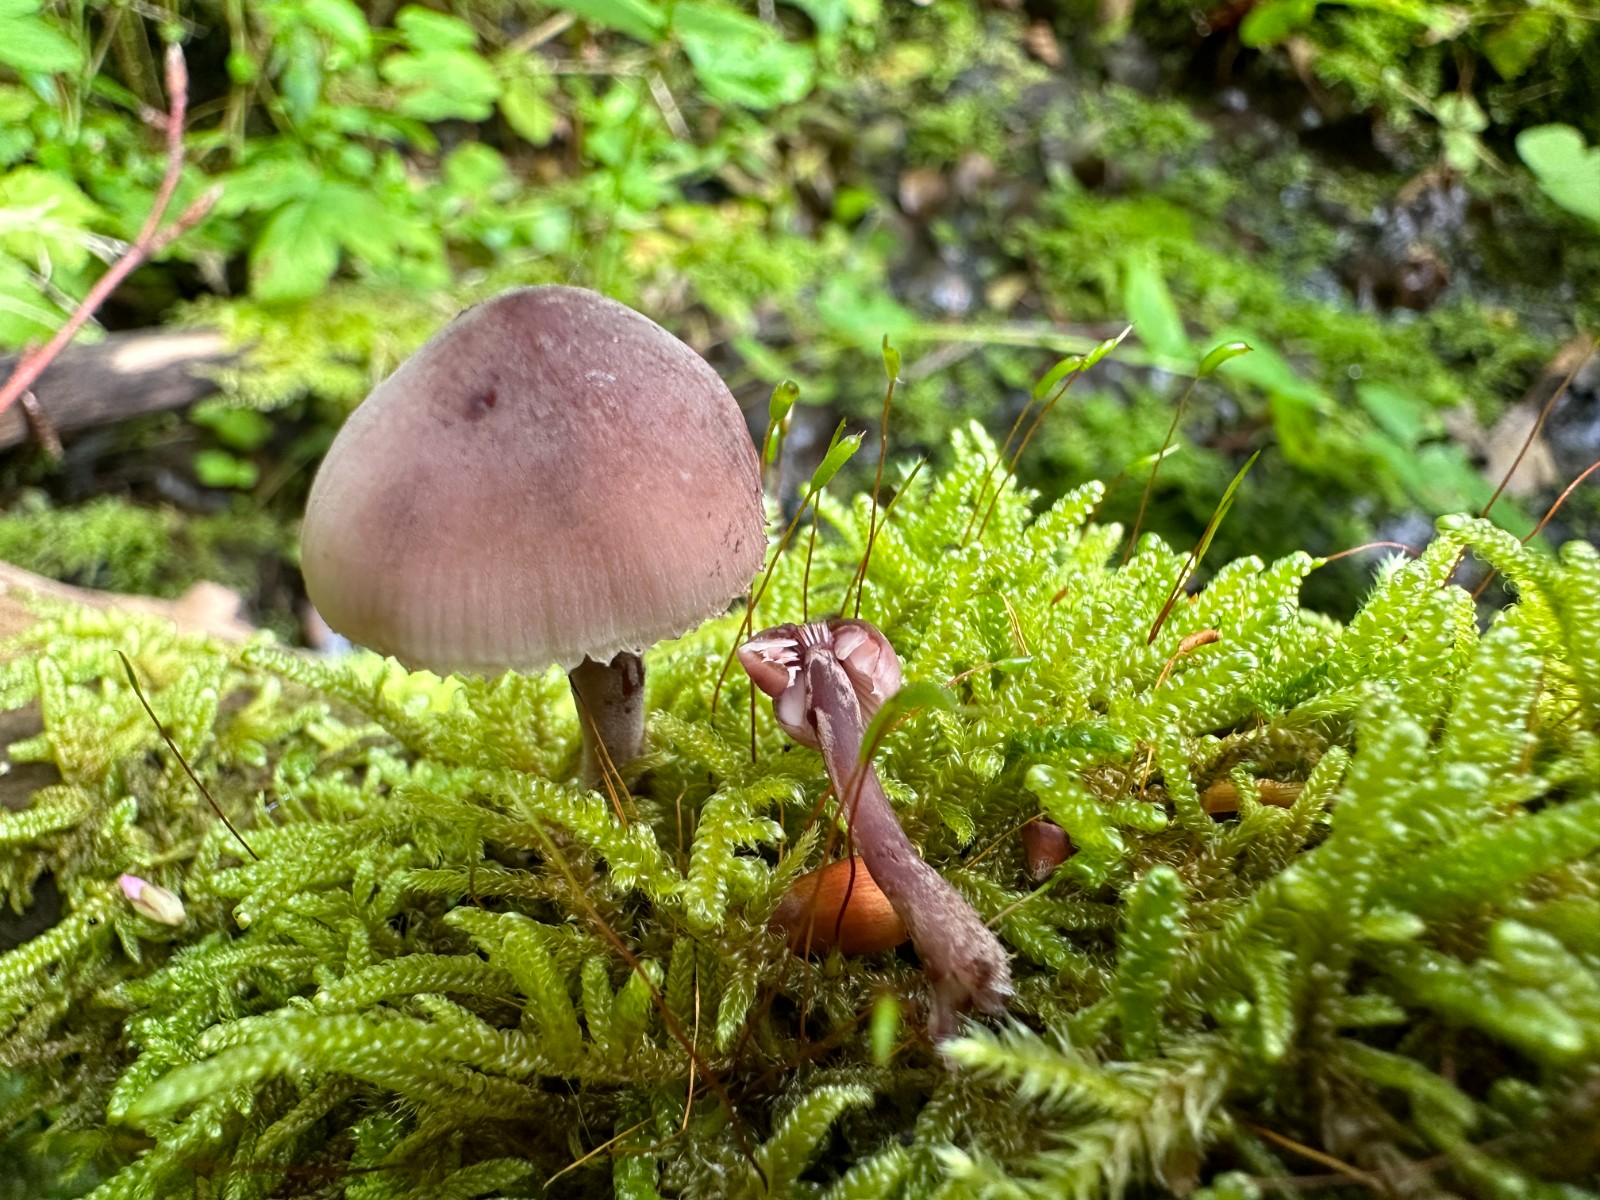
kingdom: Fungi
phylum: Basidiomycota
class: Agaricomycetes
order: Agaricales
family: Mycenaceae
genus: Mycena
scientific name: Mycena haematopus
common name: blødende huesvamp
